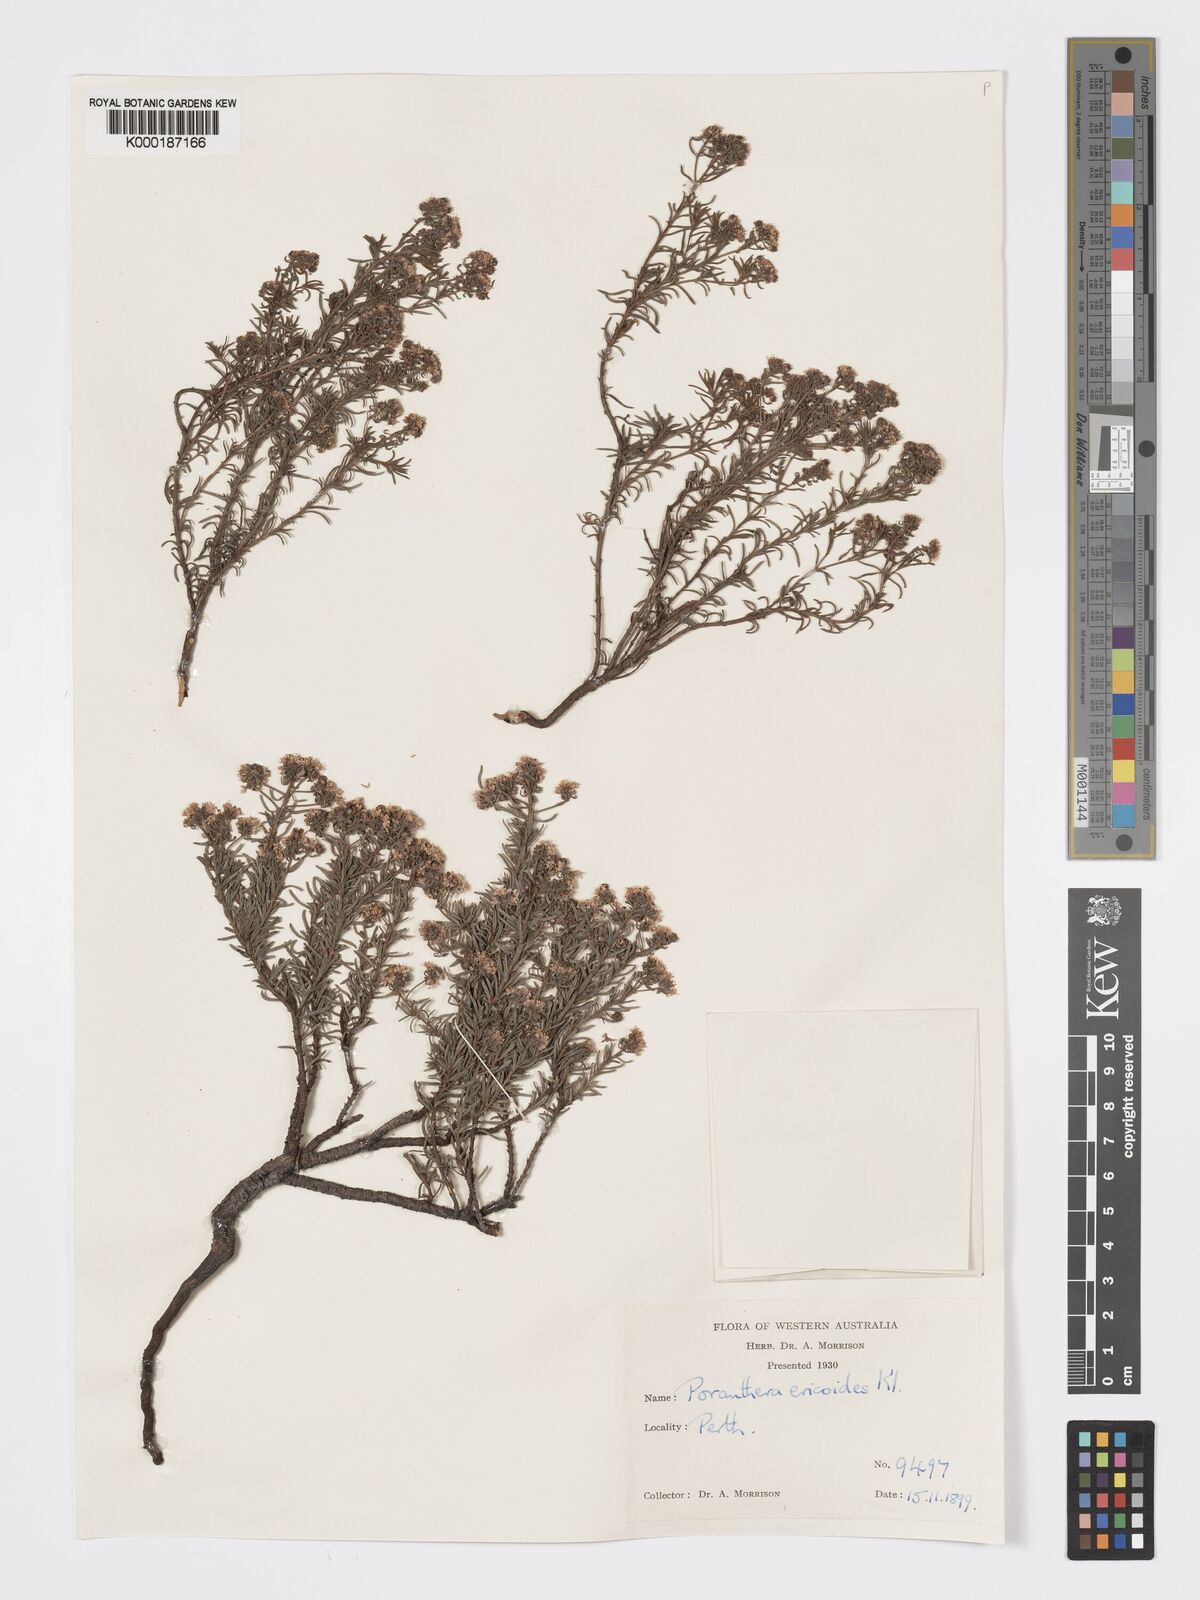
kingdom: Plantae
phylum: Tracheophyta
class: Magnoliopsida
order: Malpighiales
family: Phyllanthaceae
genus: Poranthera
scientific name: Poranthera ericoides
